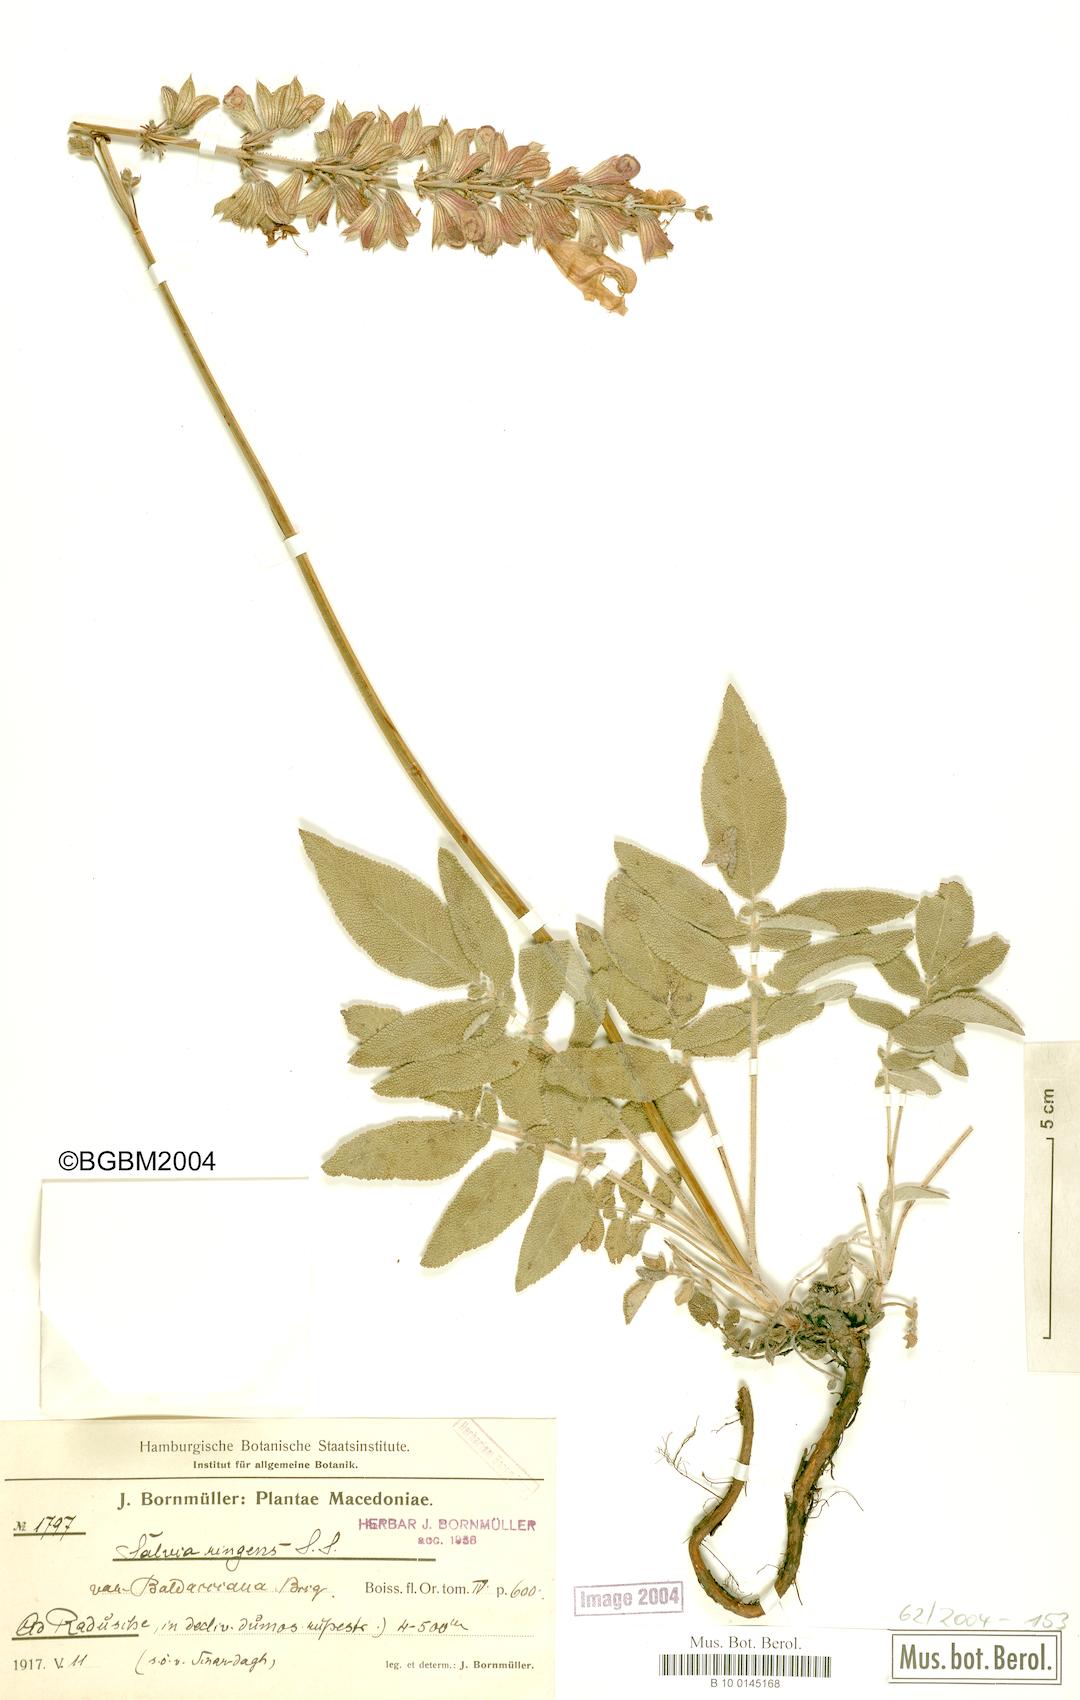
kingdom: Plantae
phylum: Tracheophyta
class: Magnoliopsida
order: Lamiales
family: Lamiaceae
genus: Salvia
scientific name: Salvia ringens
